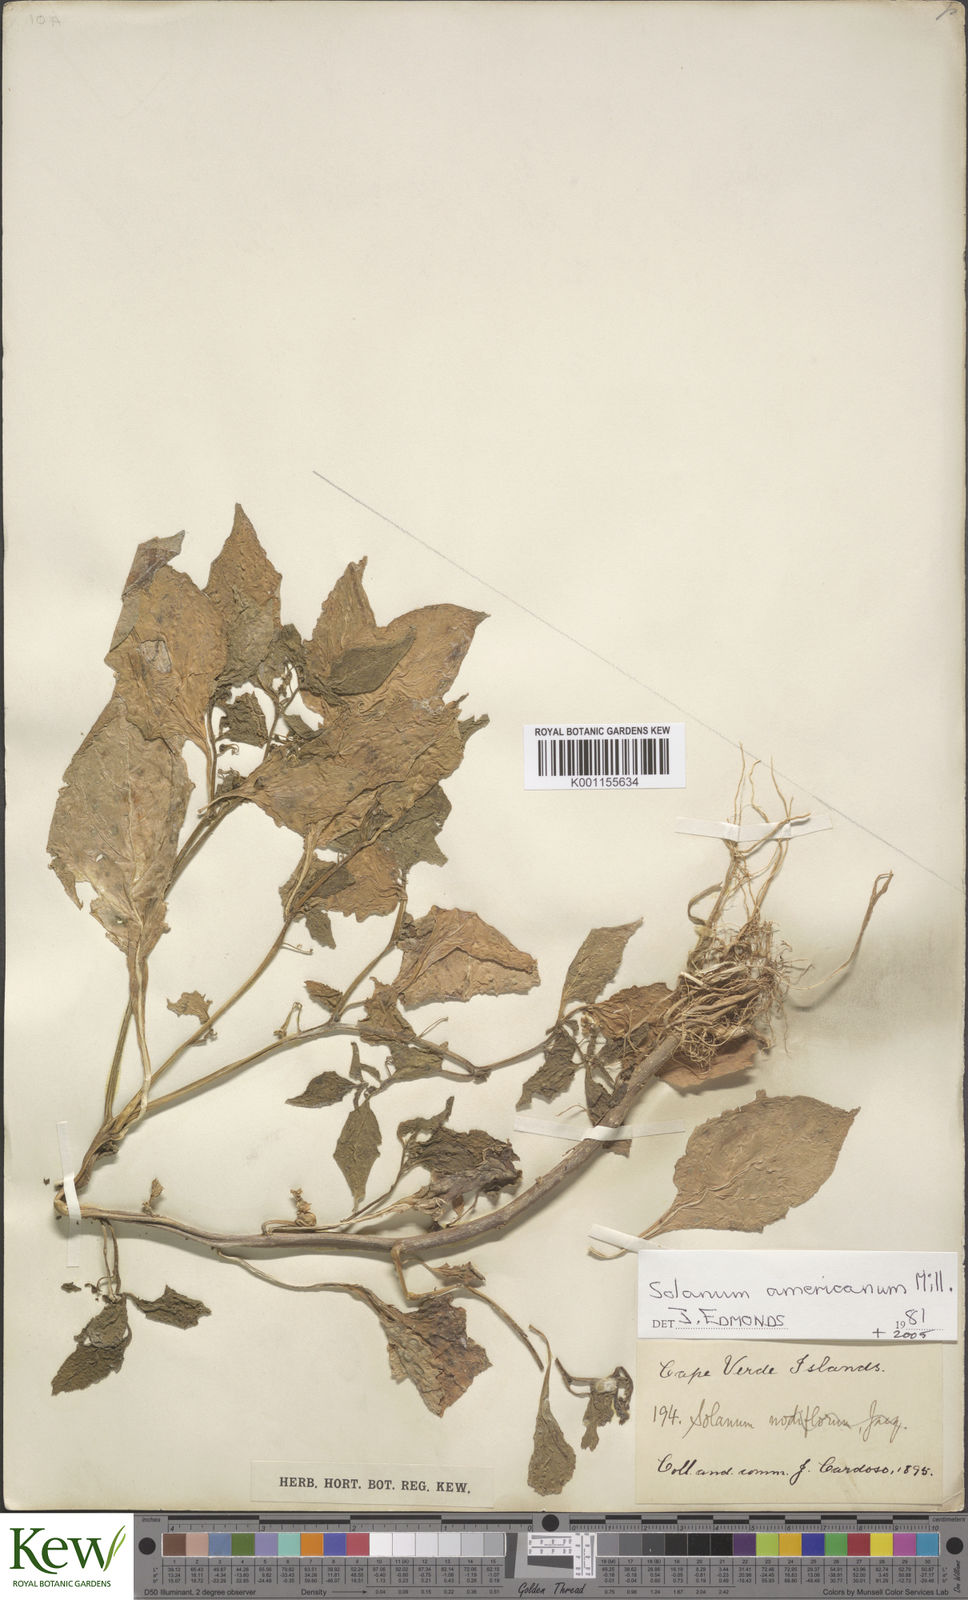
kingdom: Plantae
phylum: Tracheophyta
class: Magnoliopsida
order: Solanales
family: Solanaceae
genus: Solanum
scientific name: Solanum americanum
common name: American black nightshade
